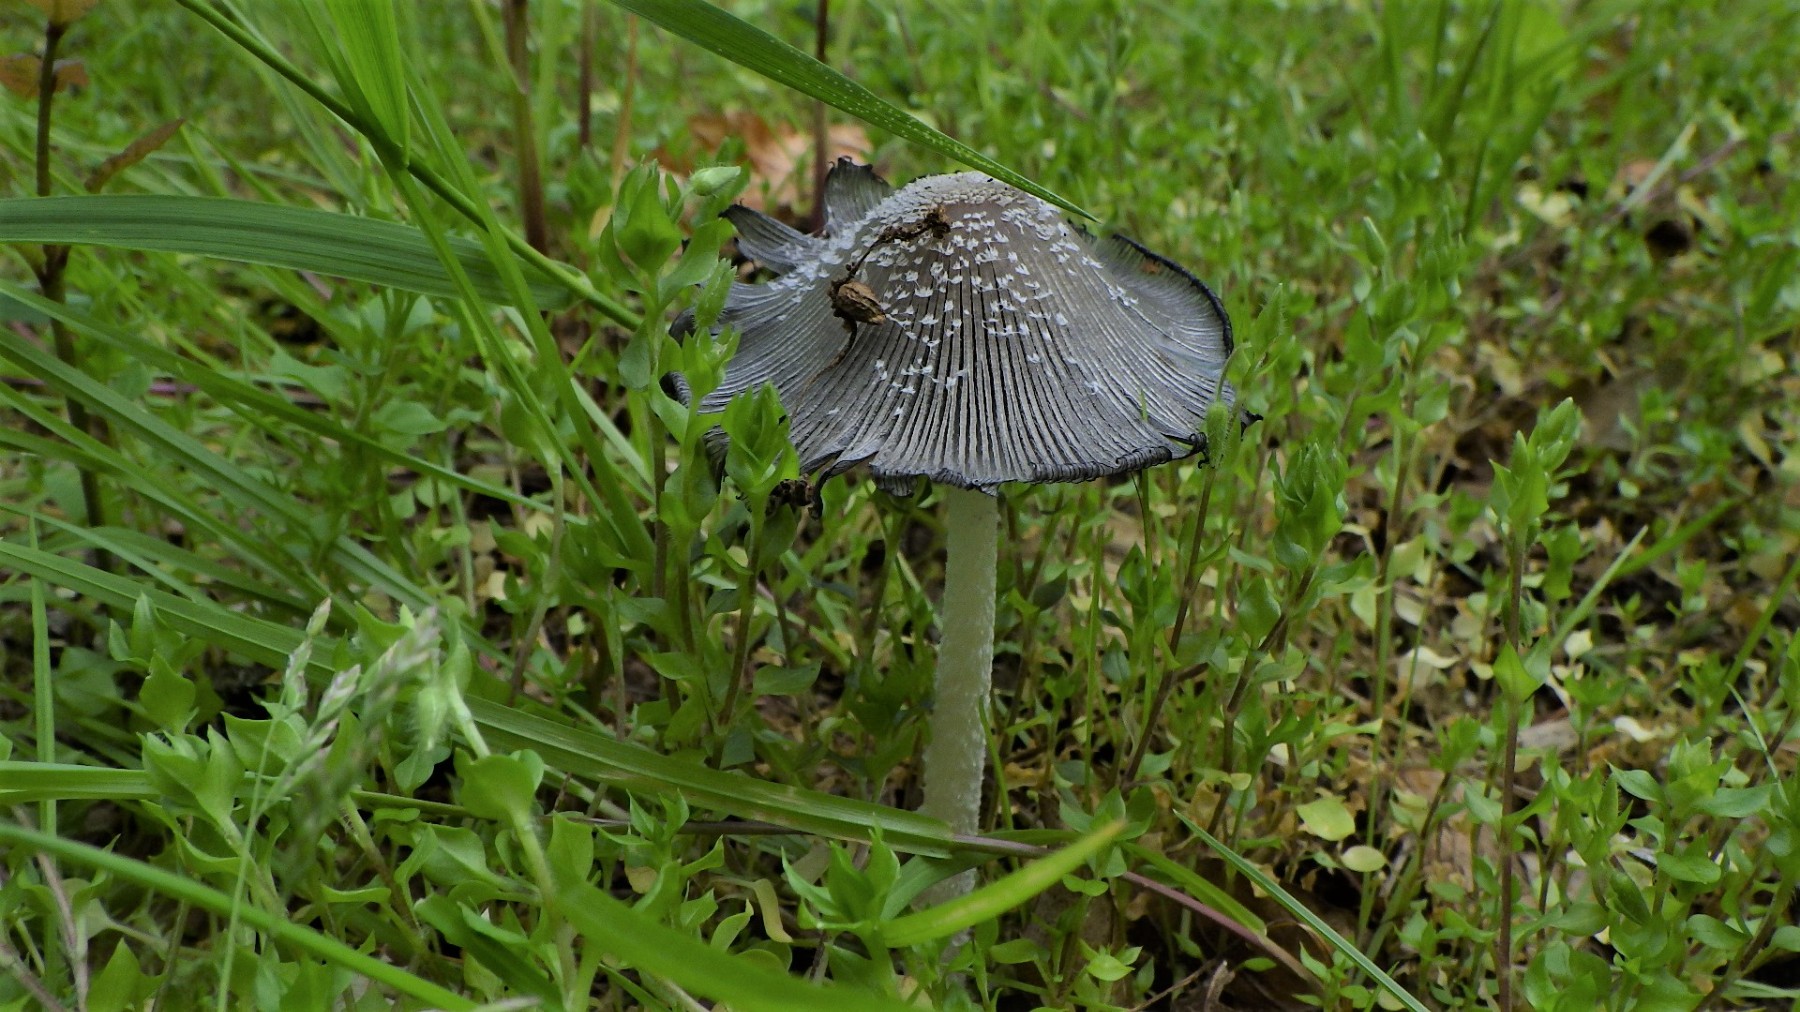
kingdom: Fungi
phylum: Basidiomycota
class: Agaricomycetes
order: Agaricales
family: Psathyrellaceae
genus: Coprinellus
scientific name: Coprinellus
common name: blækhat
